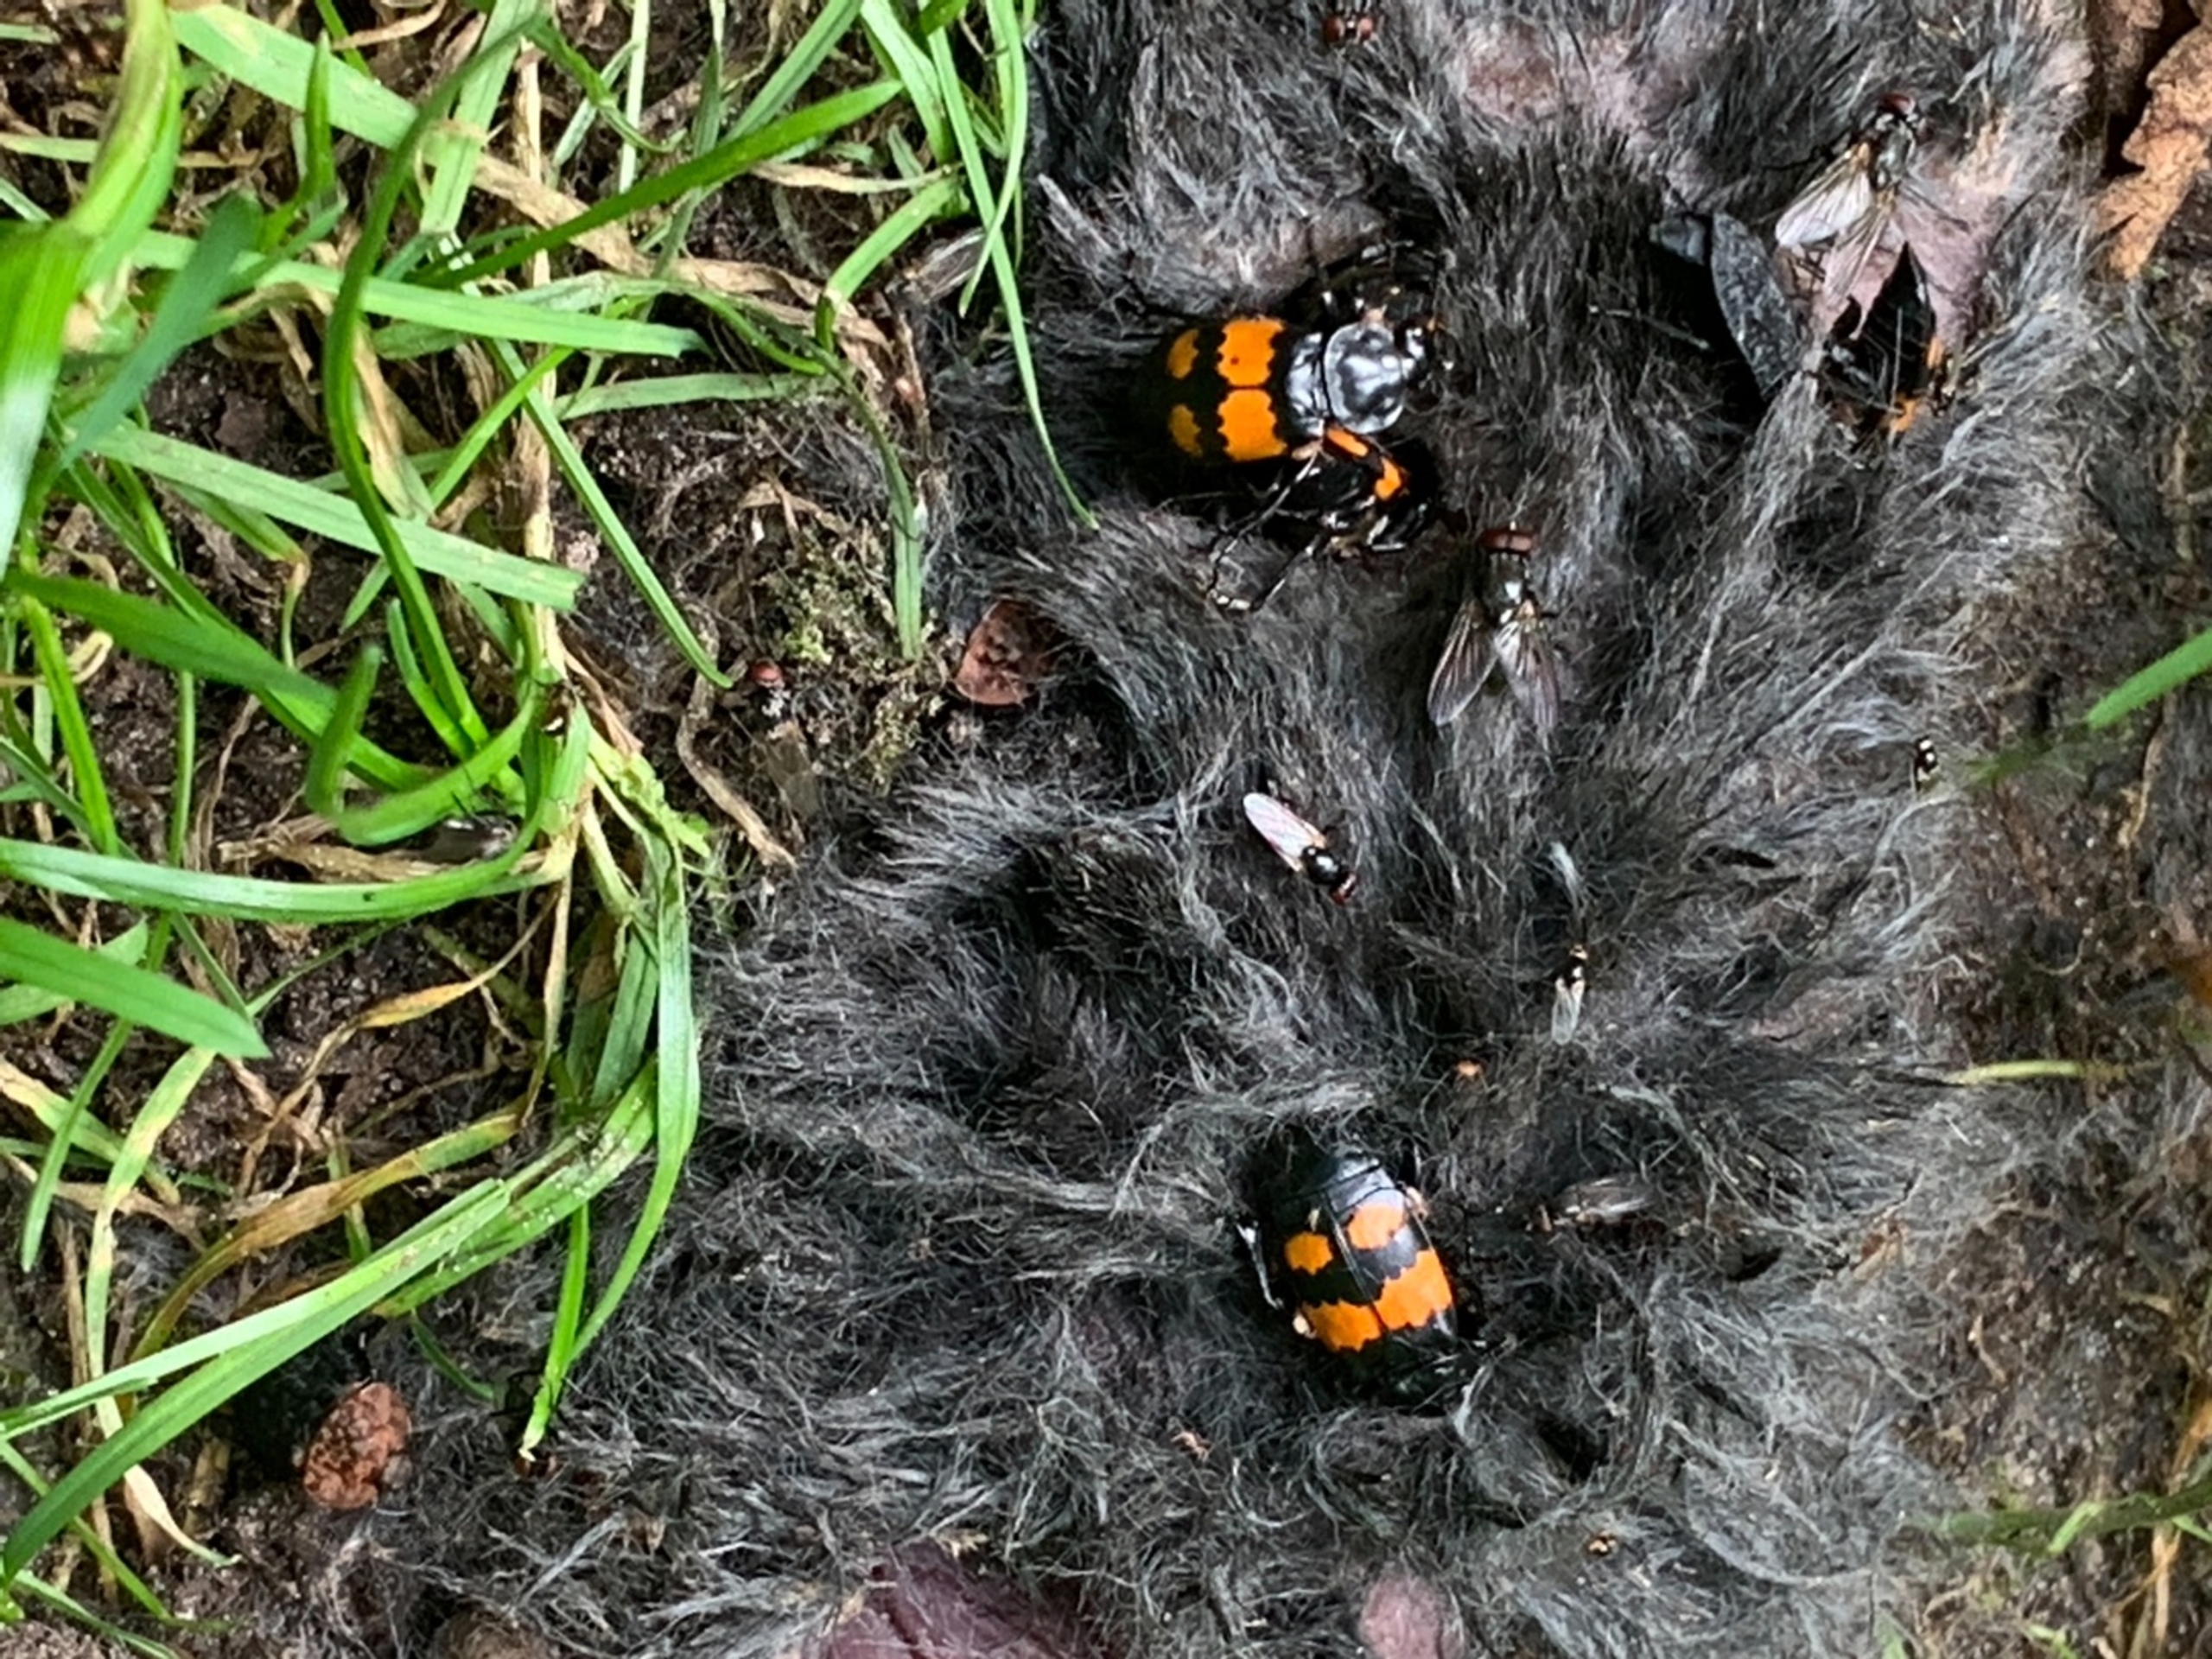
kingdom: Animalia
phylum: Arthropoda
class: Insecta
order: Coleoptera
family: Staphylinidae
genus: Nicrophorus
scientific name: Nicrophorus vespilloides
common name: Sortkøllet ådselgraver
